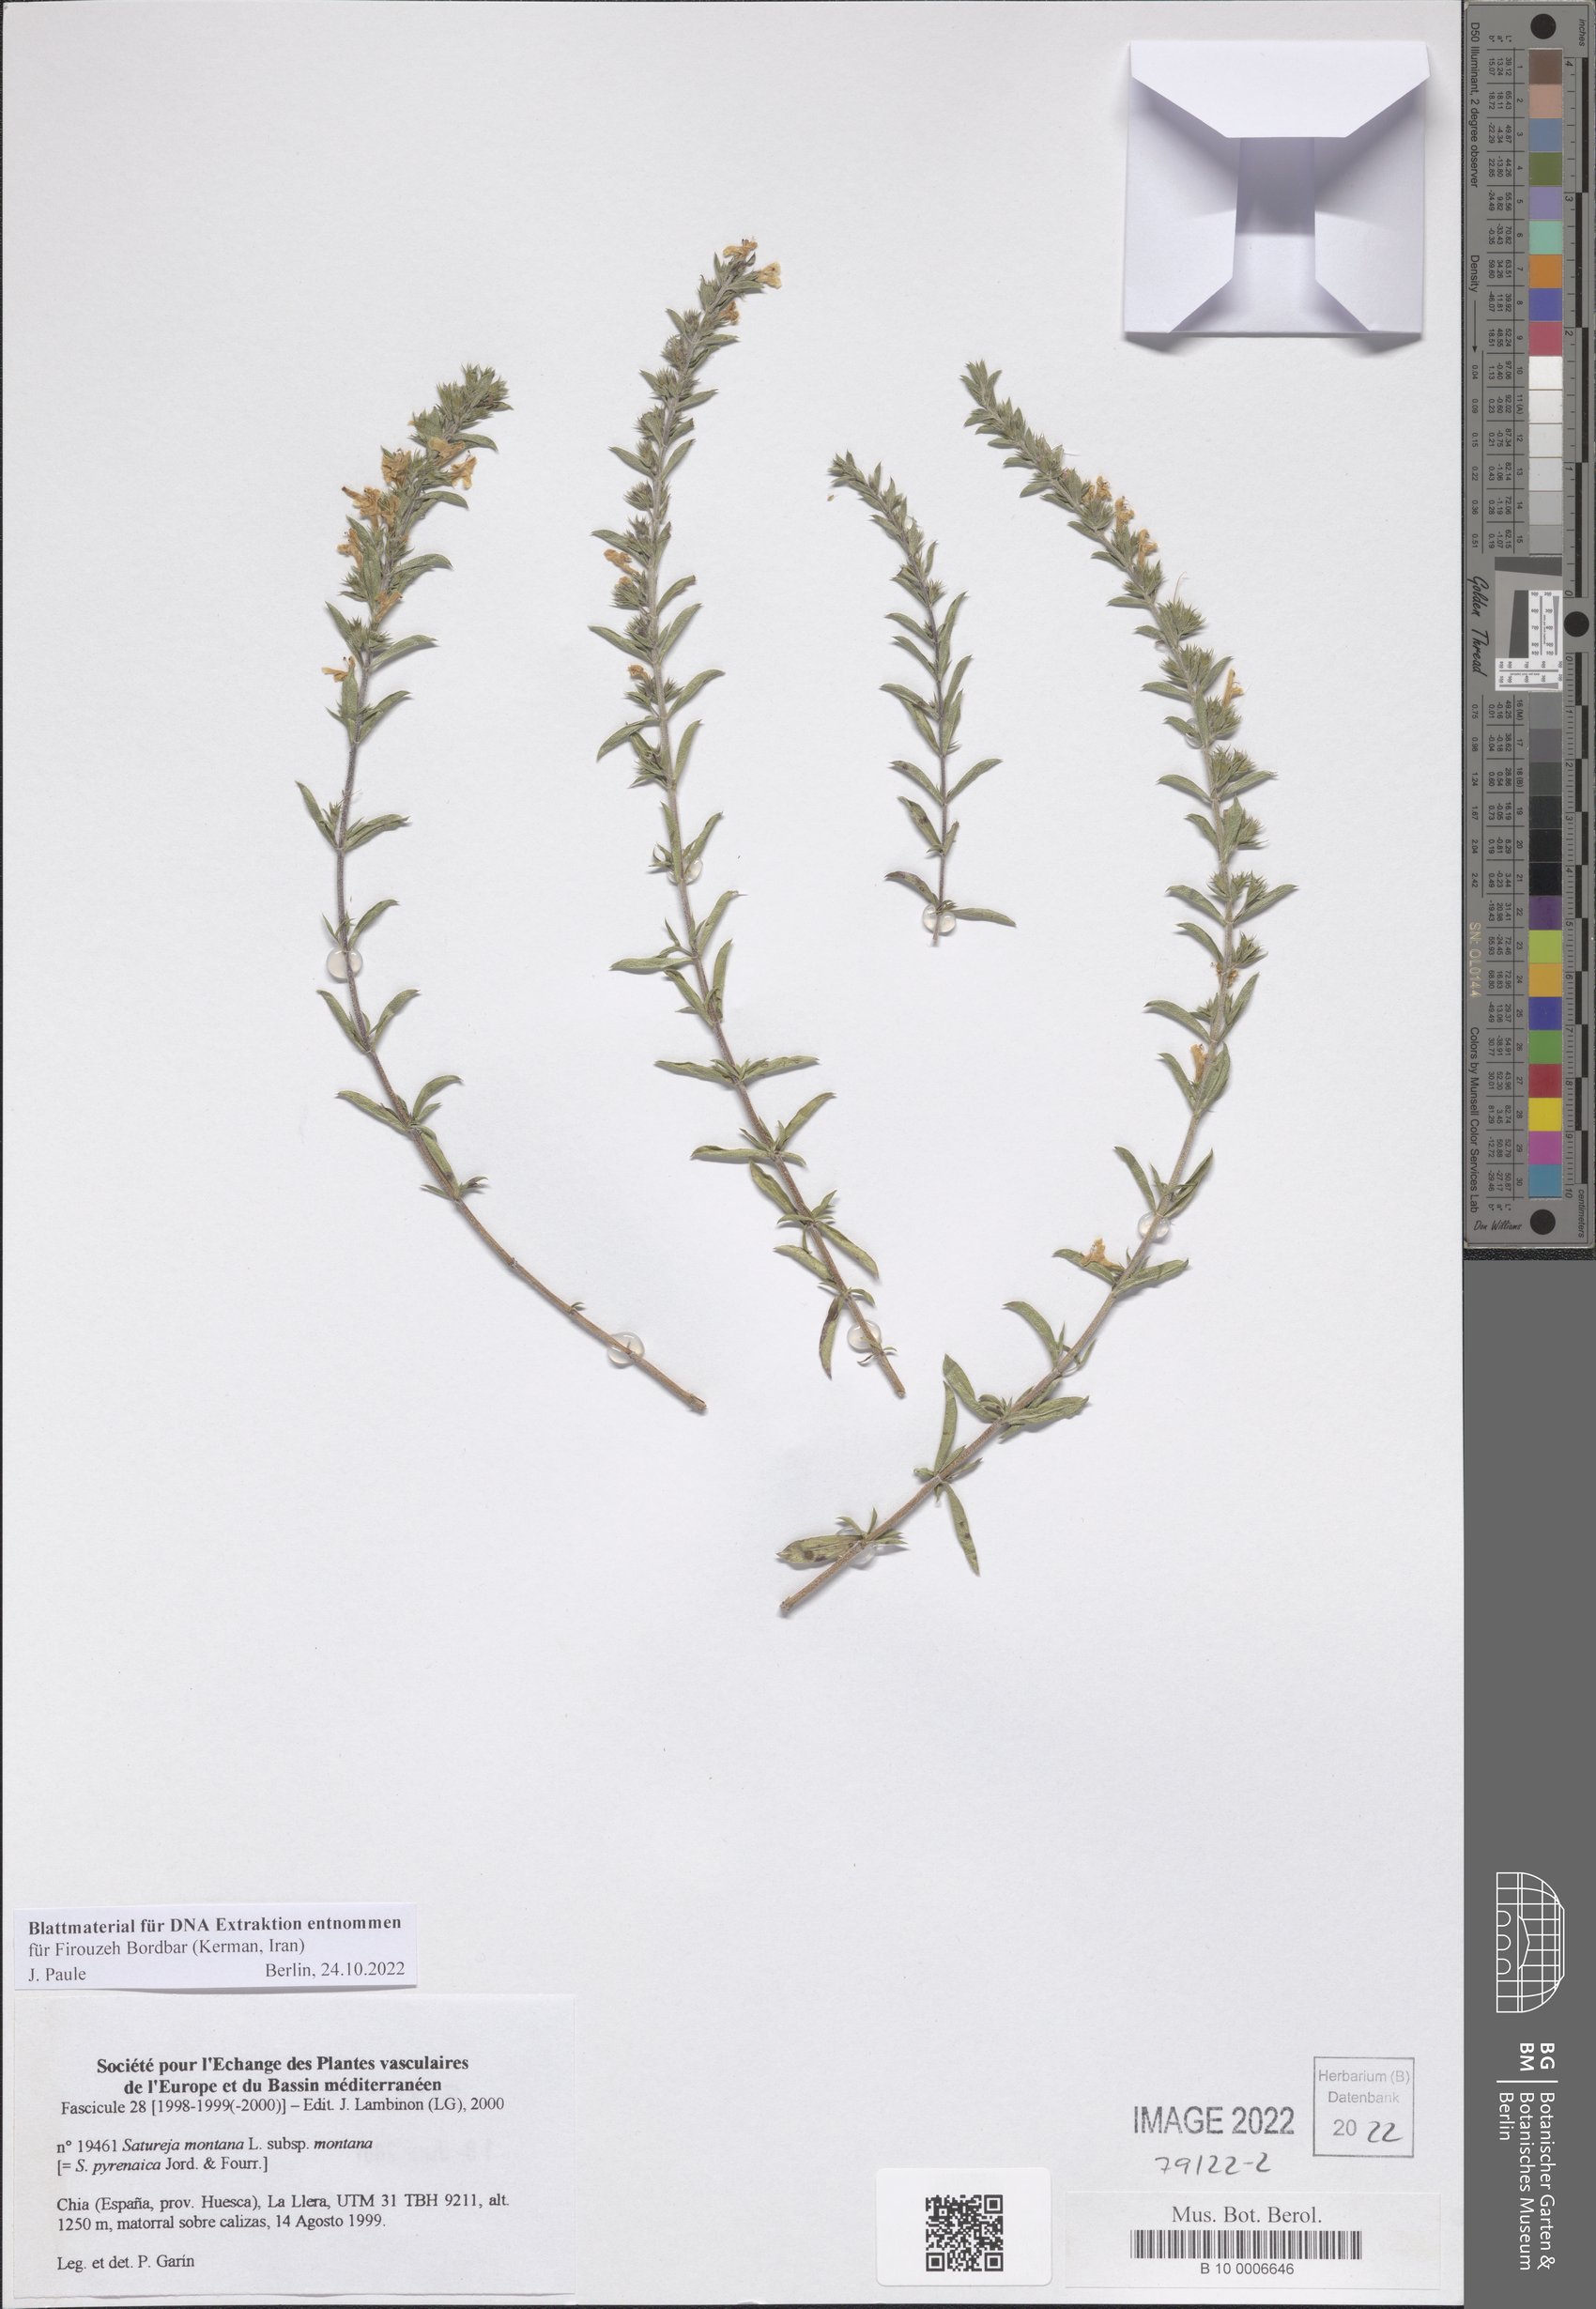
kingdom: Plantae
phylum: Tracheophyta
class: Magnoliopsida
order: Lamiales
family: Lamiaceae
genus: Satureja
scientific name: Satureja montana
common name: Winter savory
